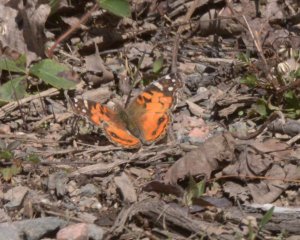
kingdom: Animalia
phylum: Arthropoda
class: Insecta
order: Lepidoptera
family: Nymphalidae
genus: Vanessa
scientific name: Vanessa virginiensis
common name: American Lady
